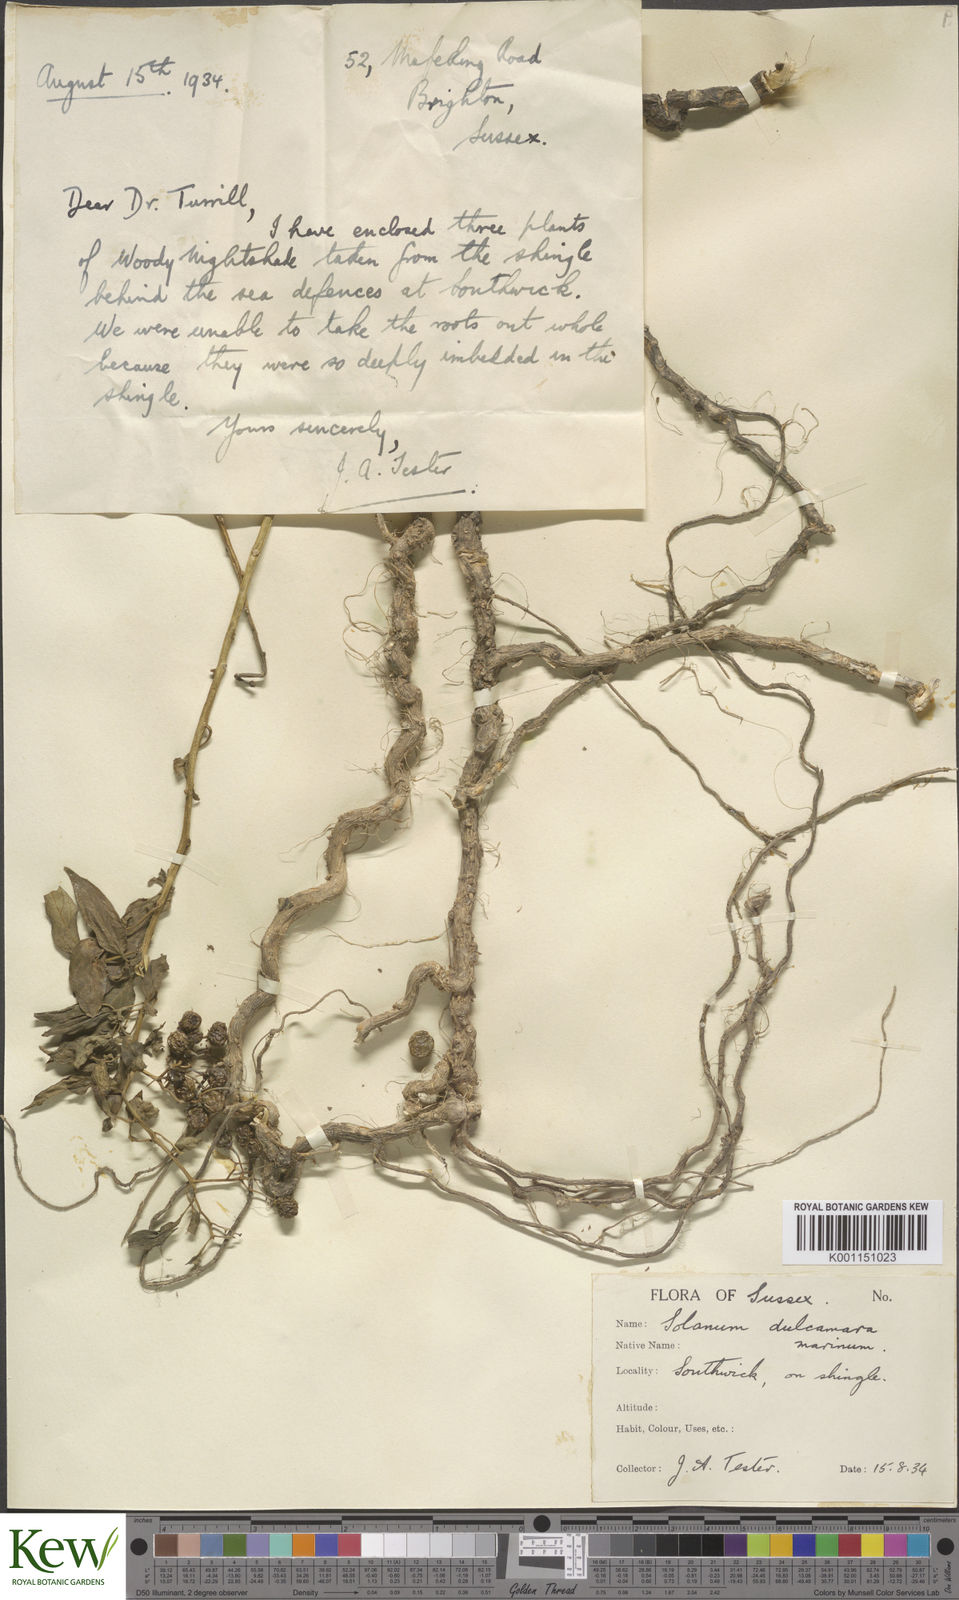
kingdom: Plantae
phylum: Tracheophyta
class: Magnoliopsida
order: Solanales
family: Solanaceae
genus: Solanum
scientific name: Solanum dulcamara
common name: Climbing nightshade
